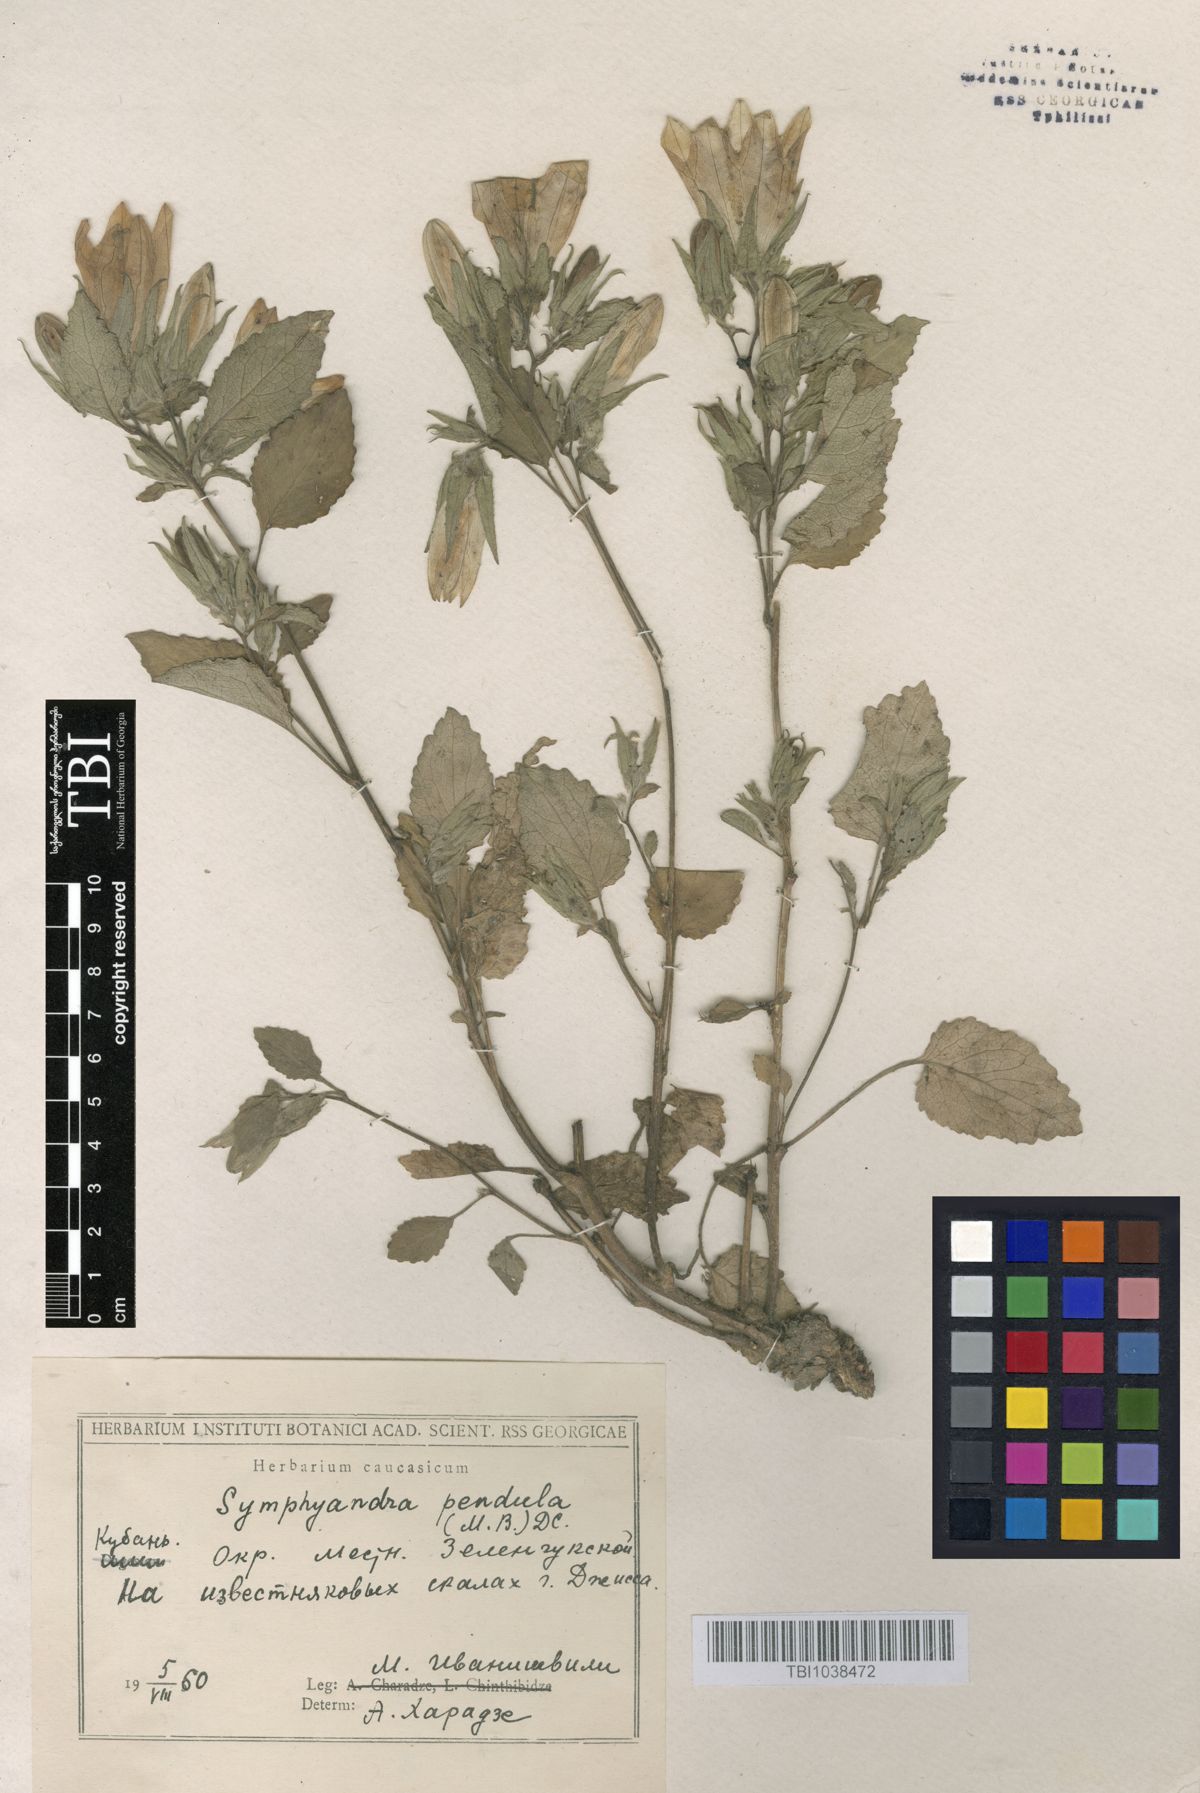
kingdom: Plantae
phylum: Tracheophyta
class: Magnoliopsida
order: Asterales
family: Campanulaceae
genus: Campanula
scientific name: Campanula pendula
